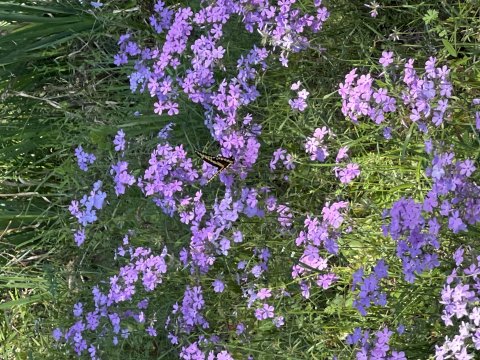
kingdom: Animalia
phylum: Arthropoda
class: Insecta
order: Lepidoptera
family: Papilionidae
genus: Papilio
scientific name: Papilio cresphontes
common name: Eastern Giant Swallowtail
